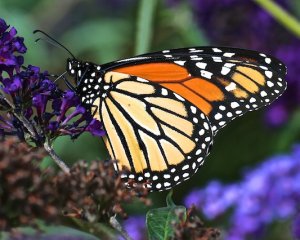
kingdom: Animalia
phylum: Arthropoda
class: Insecta
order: Lepidoptera
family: Nymphalidae
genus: Danaus
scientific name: Danaus plexippus
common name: Monarch
